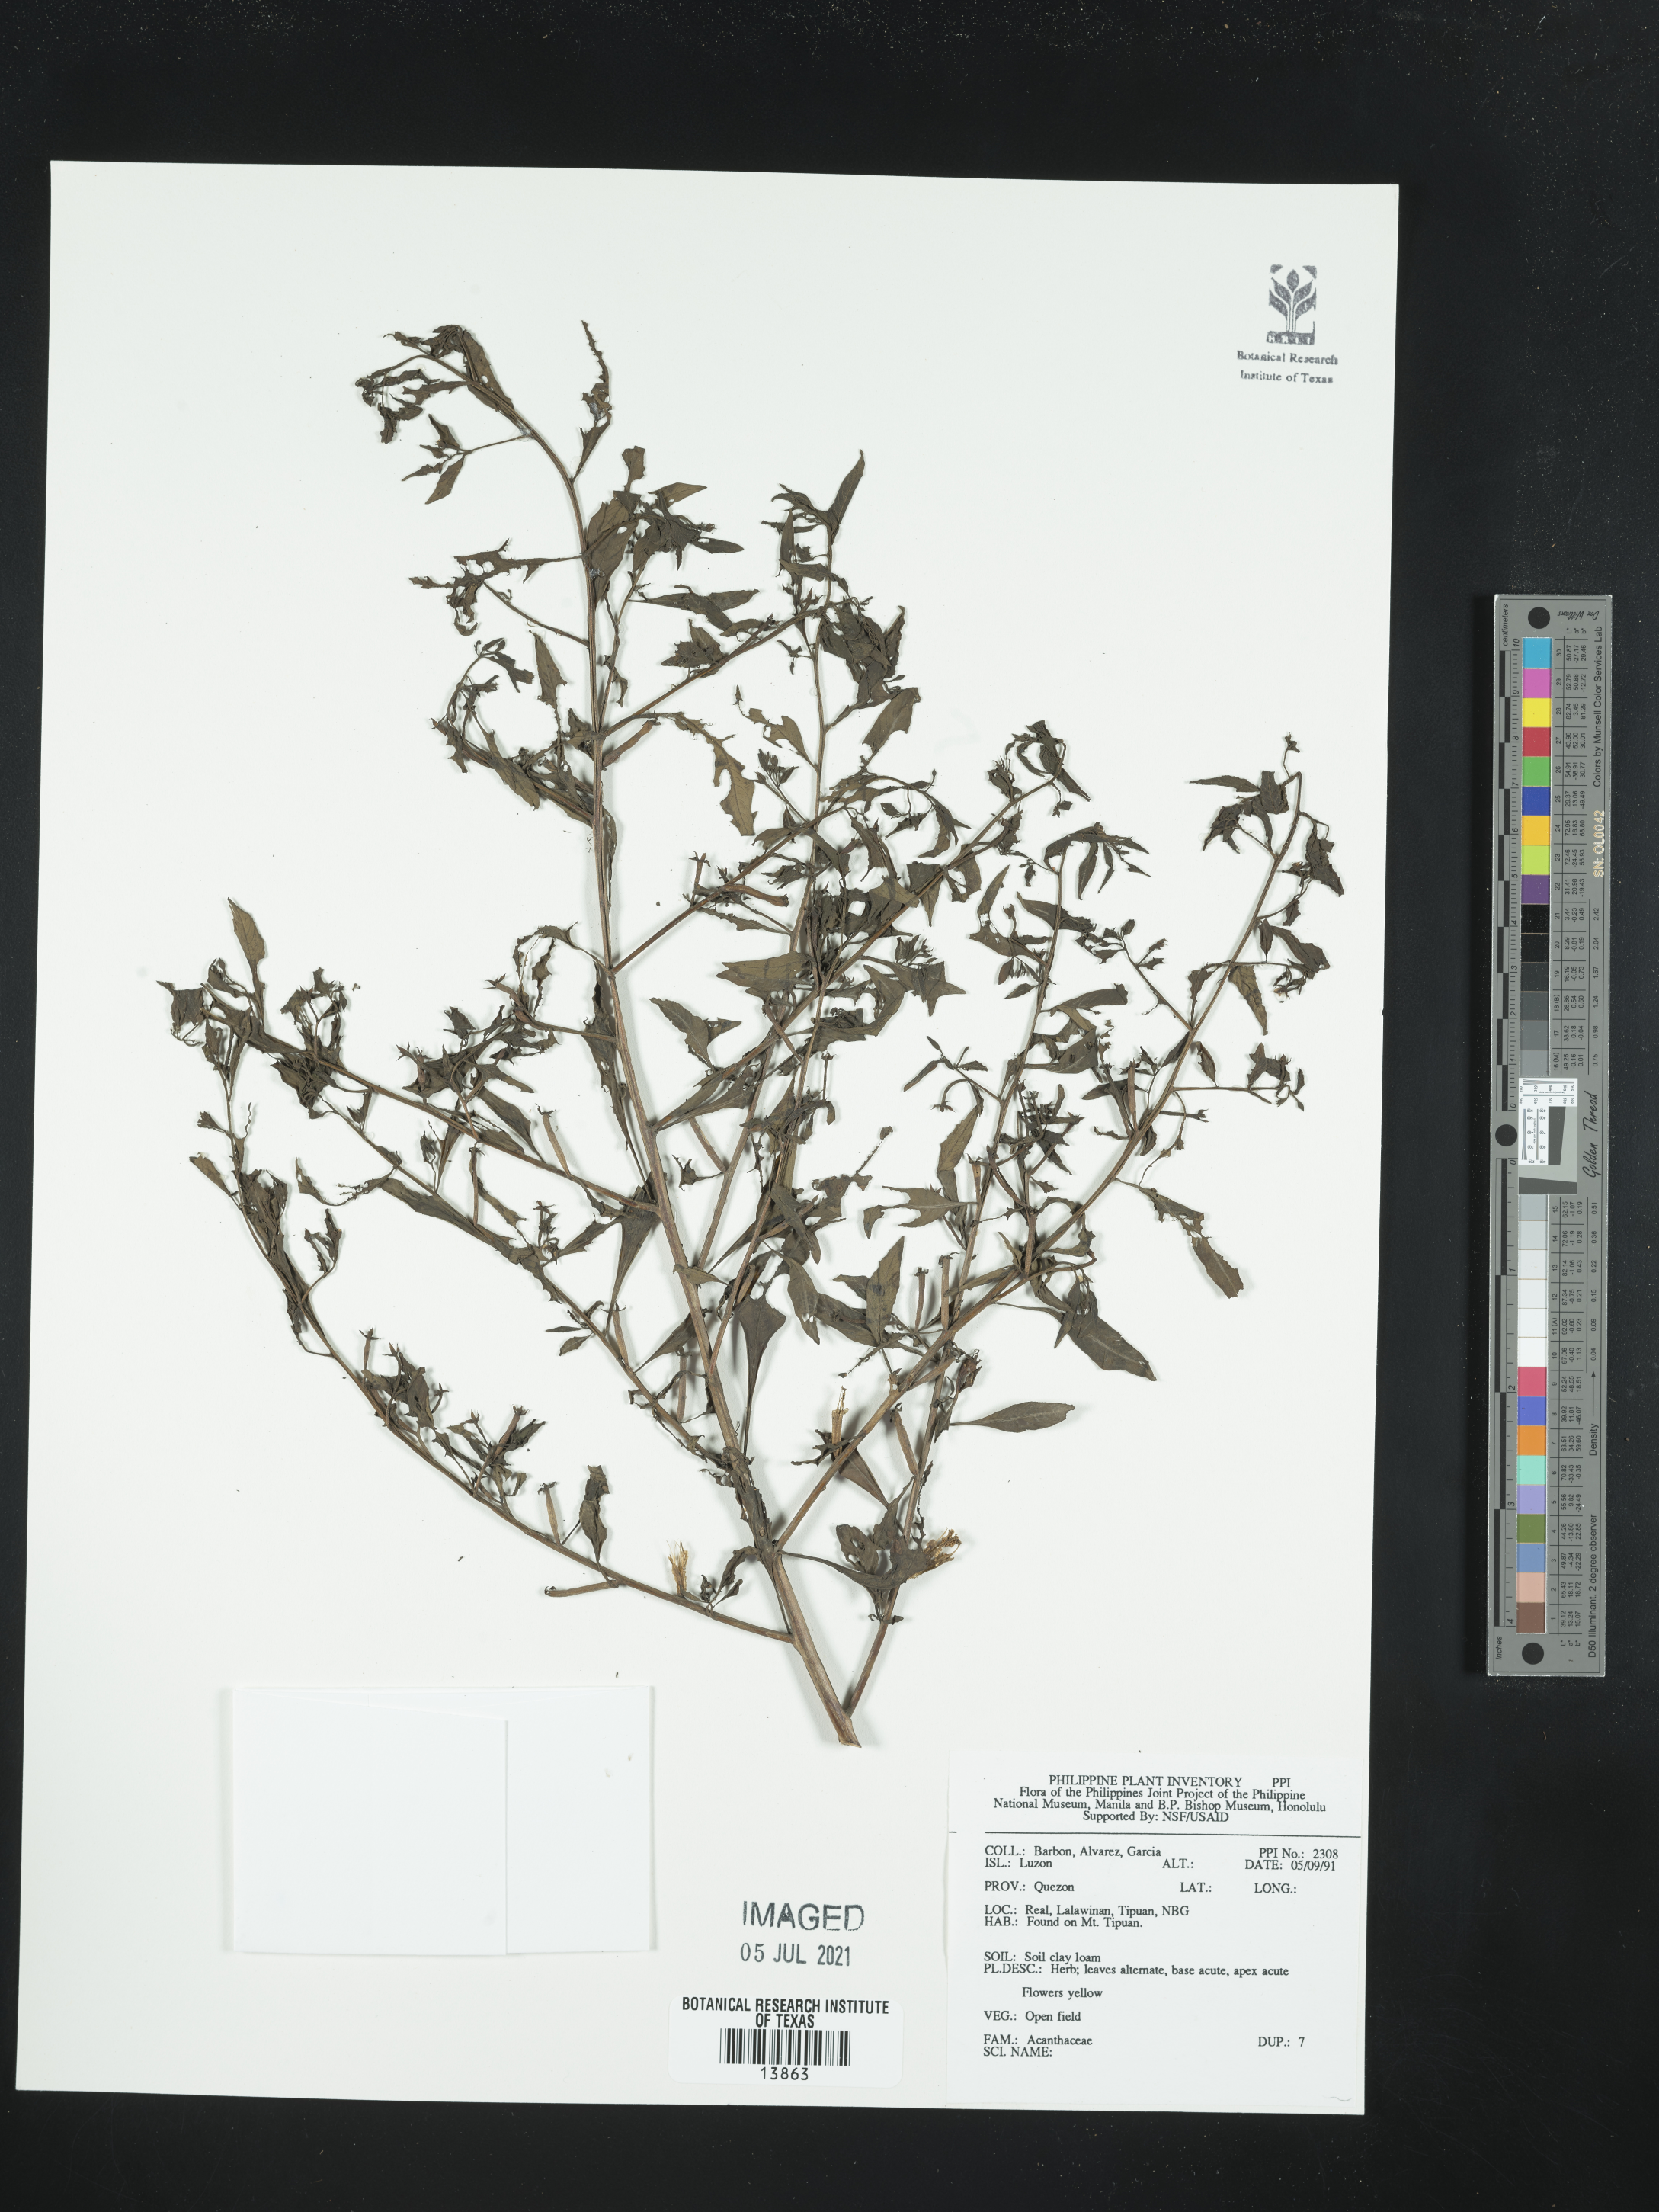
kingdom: Plantae
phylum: Tracheophyta
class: Magnoliopsida
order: Lamiales
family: Acanthaceae
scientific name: Acanthaceae
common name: Acanthaceae
